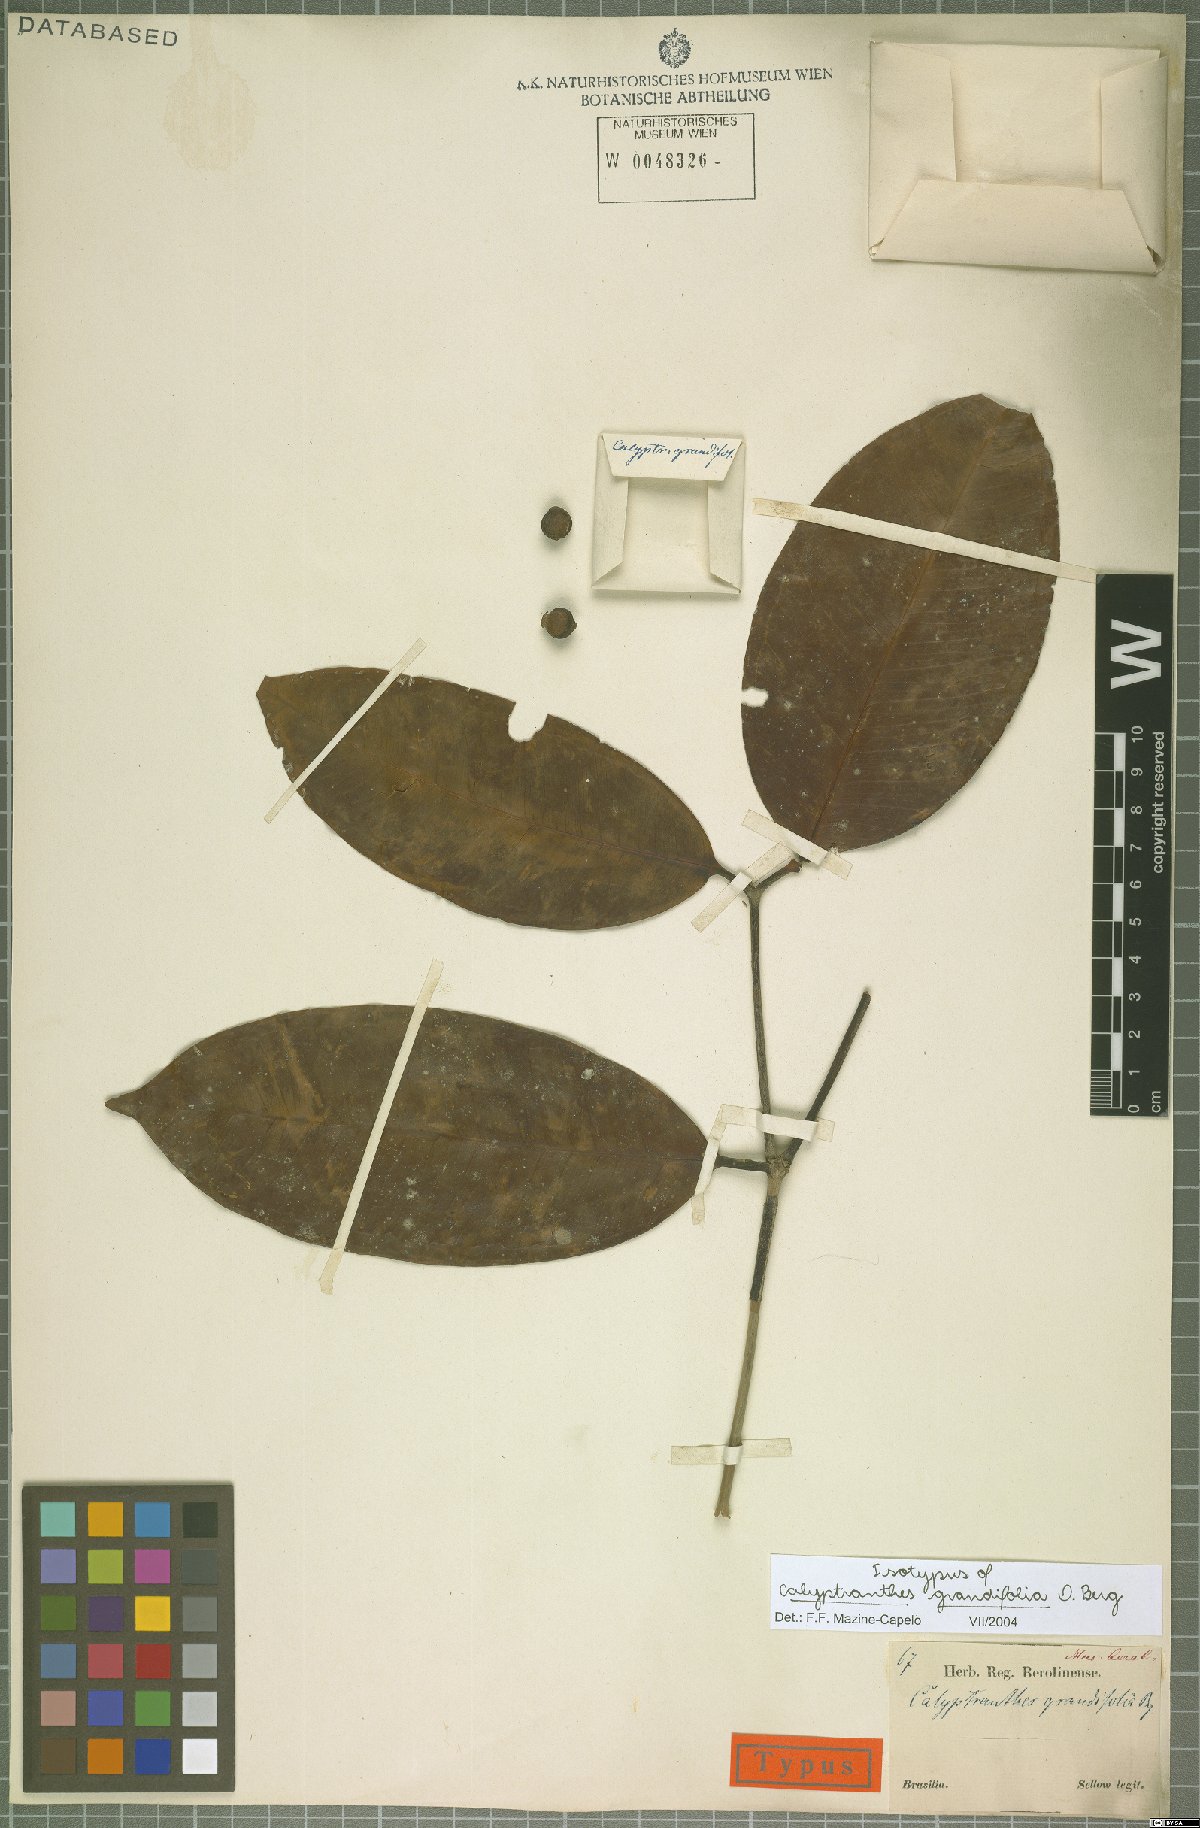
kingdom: Plantae
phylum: Tracheophyta
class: Magnoliopsida
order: Myrtales
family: Myrtaceae
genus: Calyptranthes
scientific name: Calyptranthes grandifolia
